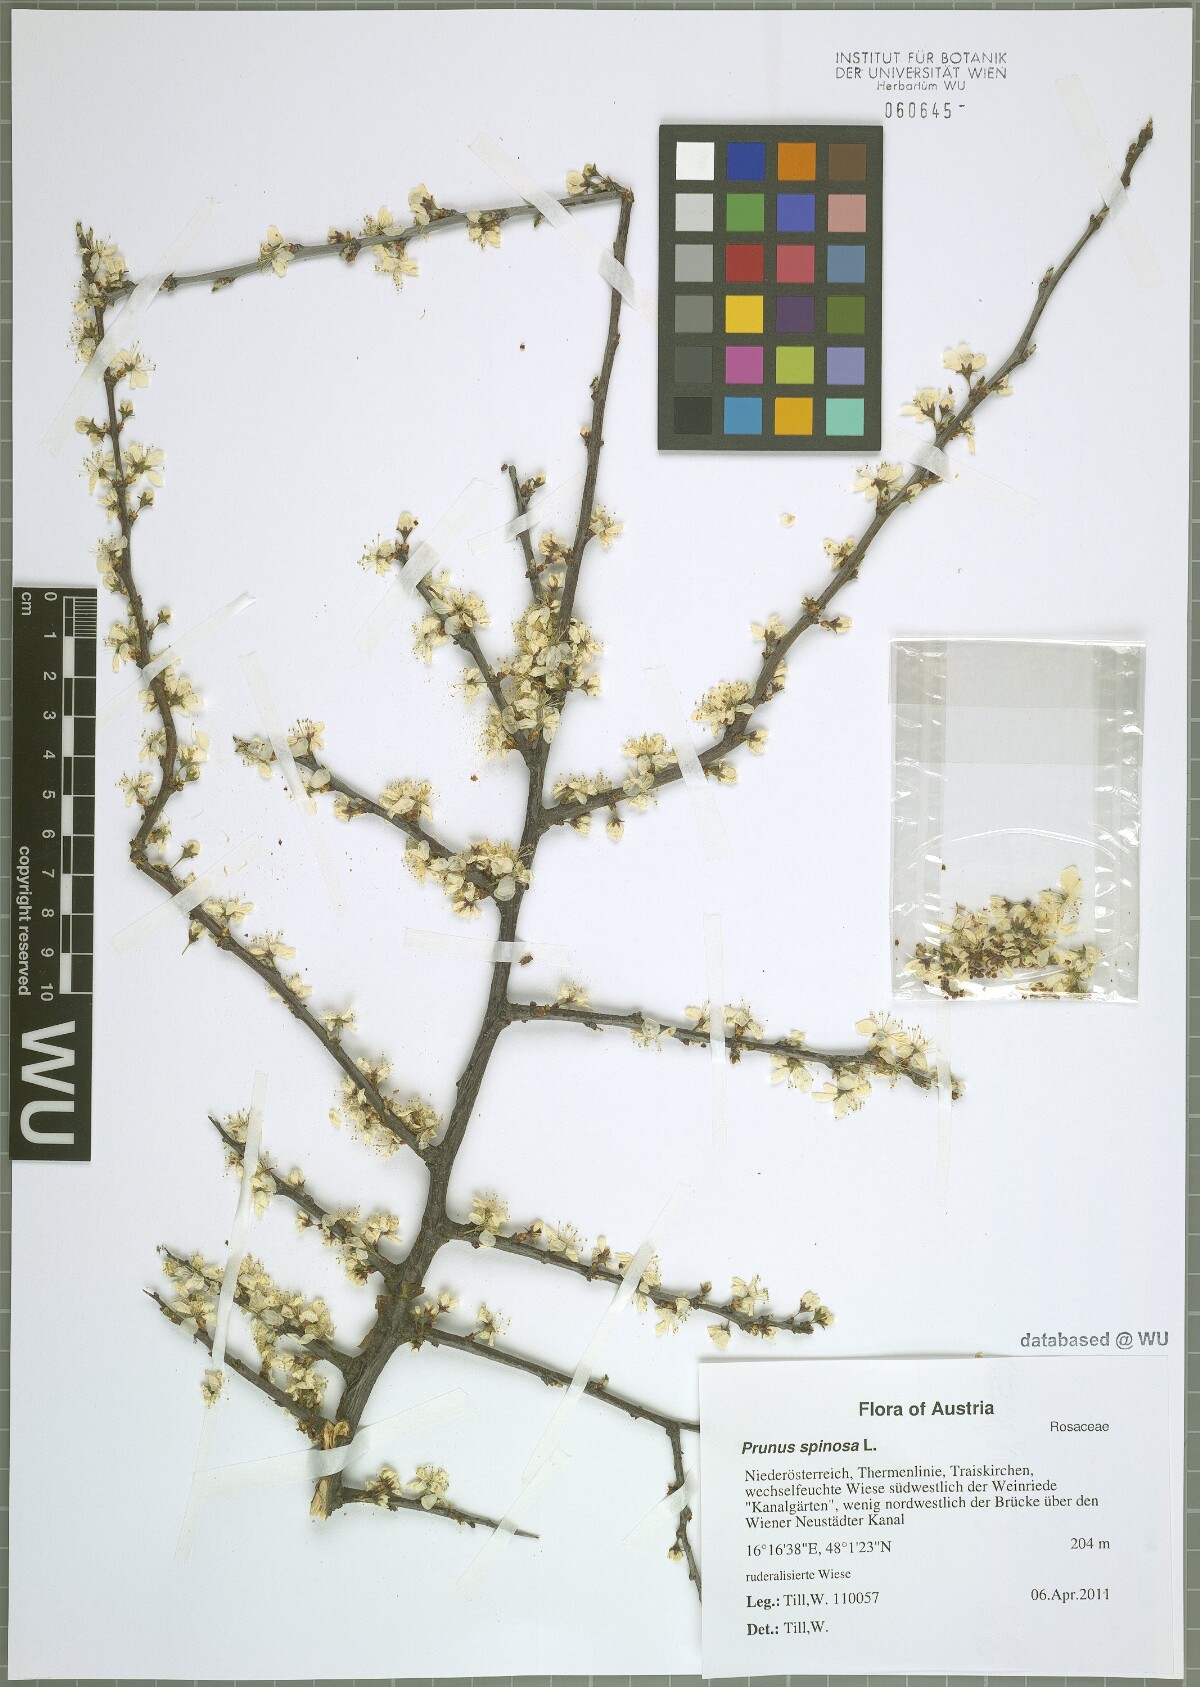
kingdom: Plantae
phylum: Tracheophyta
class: Magnoliopsida
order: Rosales
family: Rosaceae
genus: Prunus
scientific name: Prunus spinosa
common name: Blackthorn
